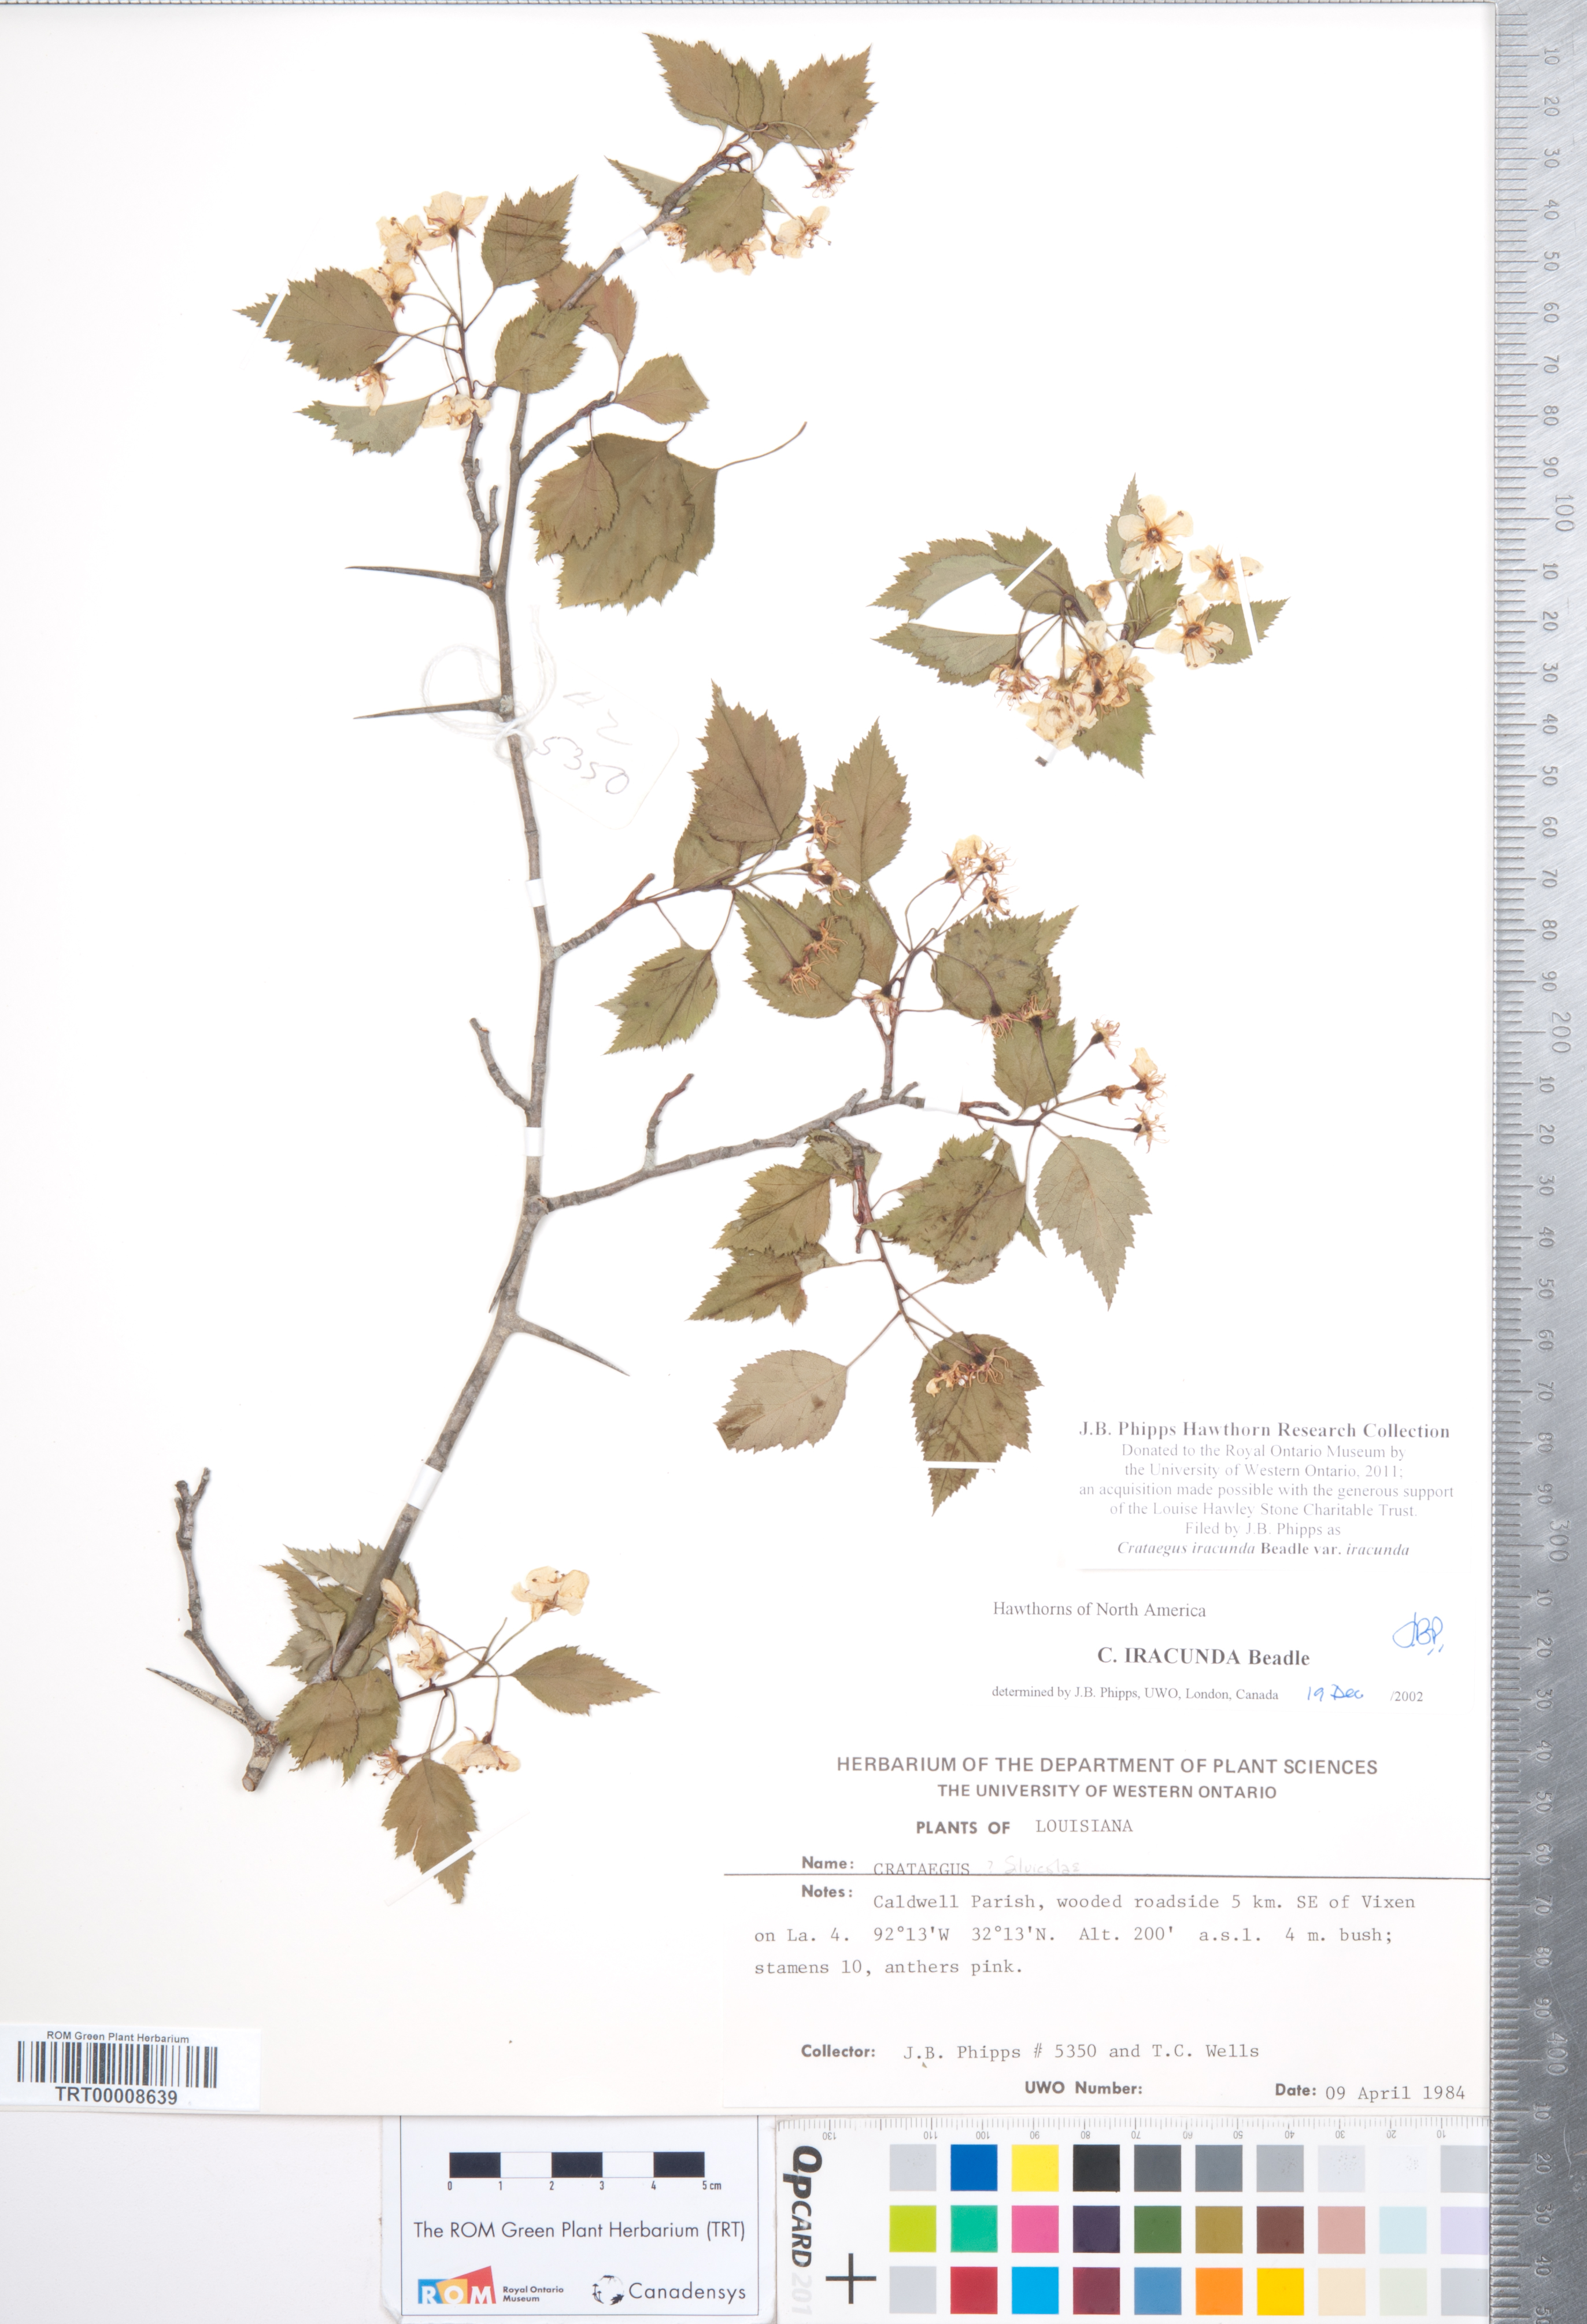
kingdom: Plantae
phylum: Tracheophyta
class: Magnoliopsida
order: Rosales
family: Rosaceae
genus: Crataegus
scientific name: Crataegus iracunda
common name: Stolon-bearing hawthorn
